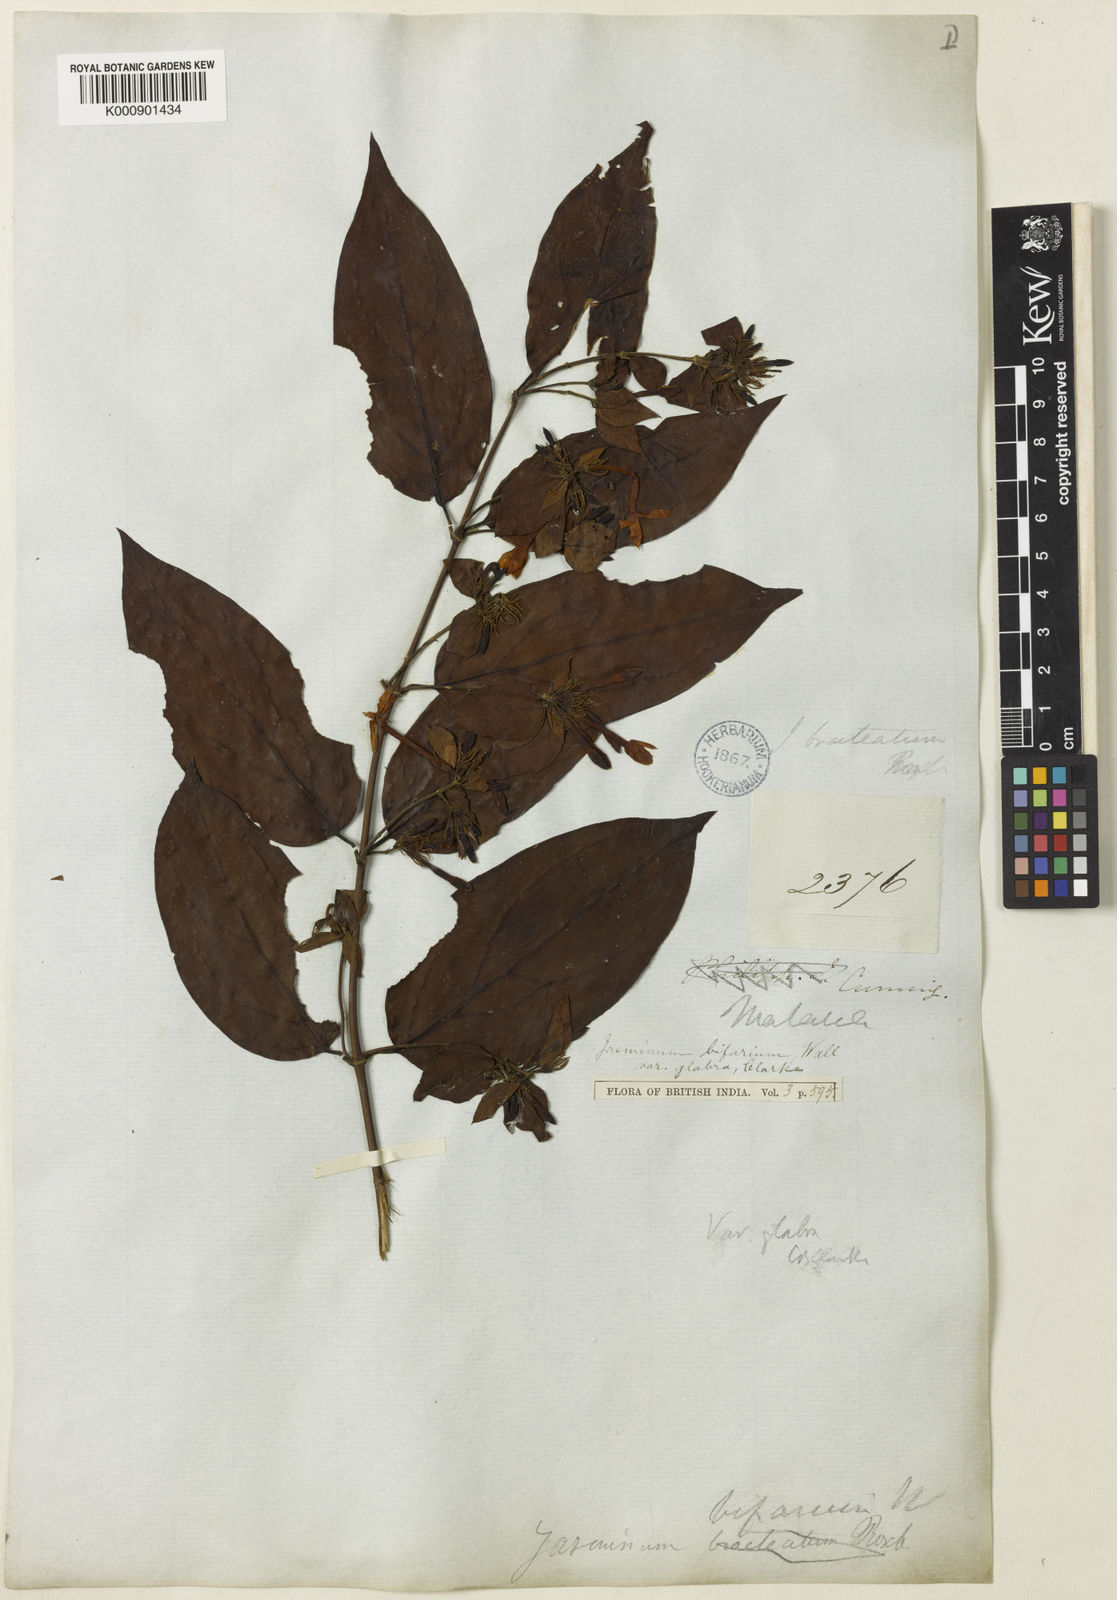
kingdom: Plantae
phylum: Tracheophyta
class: Magnoliopsida
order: Lamiales
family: Oleaceae
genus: Jasminum
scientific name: Jasminum elongatum
